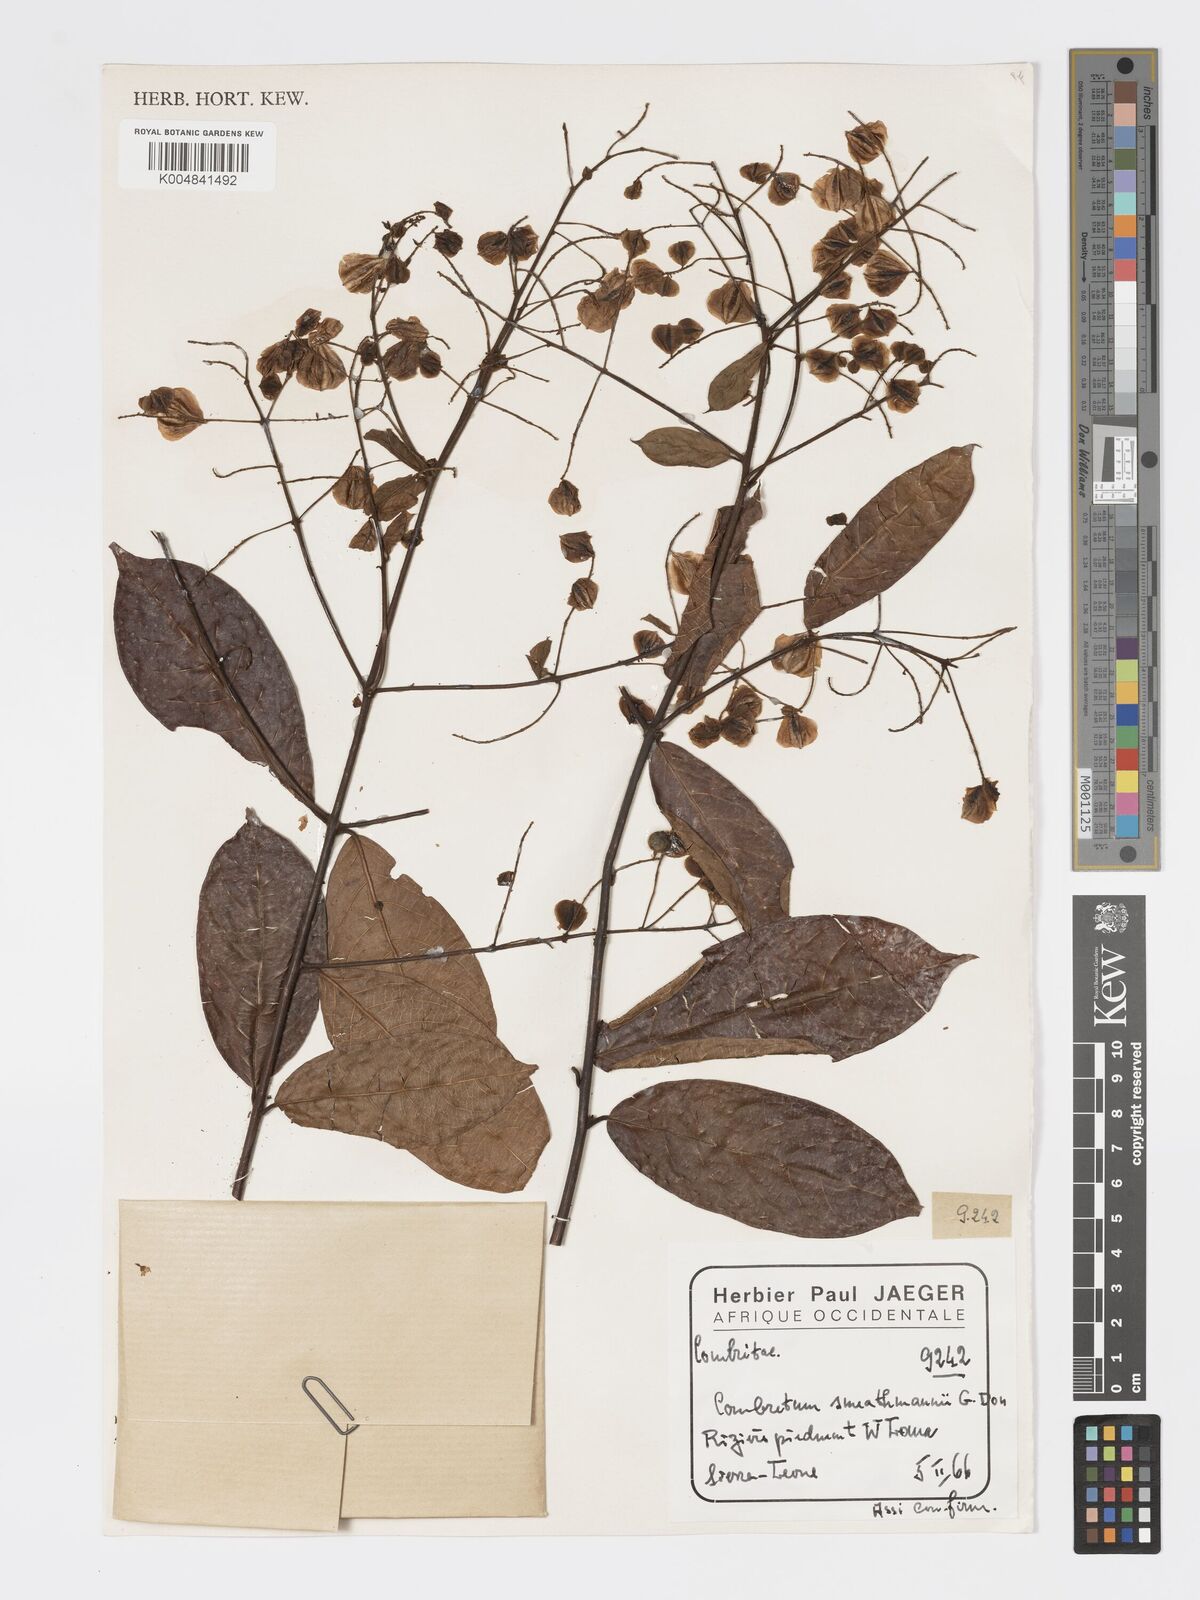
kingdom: Plantae
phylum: Tracheophyta
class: Magnoliopsida
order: Myrtales
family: Combretaceae
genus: Combretum
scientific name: Combretum mucronatum
